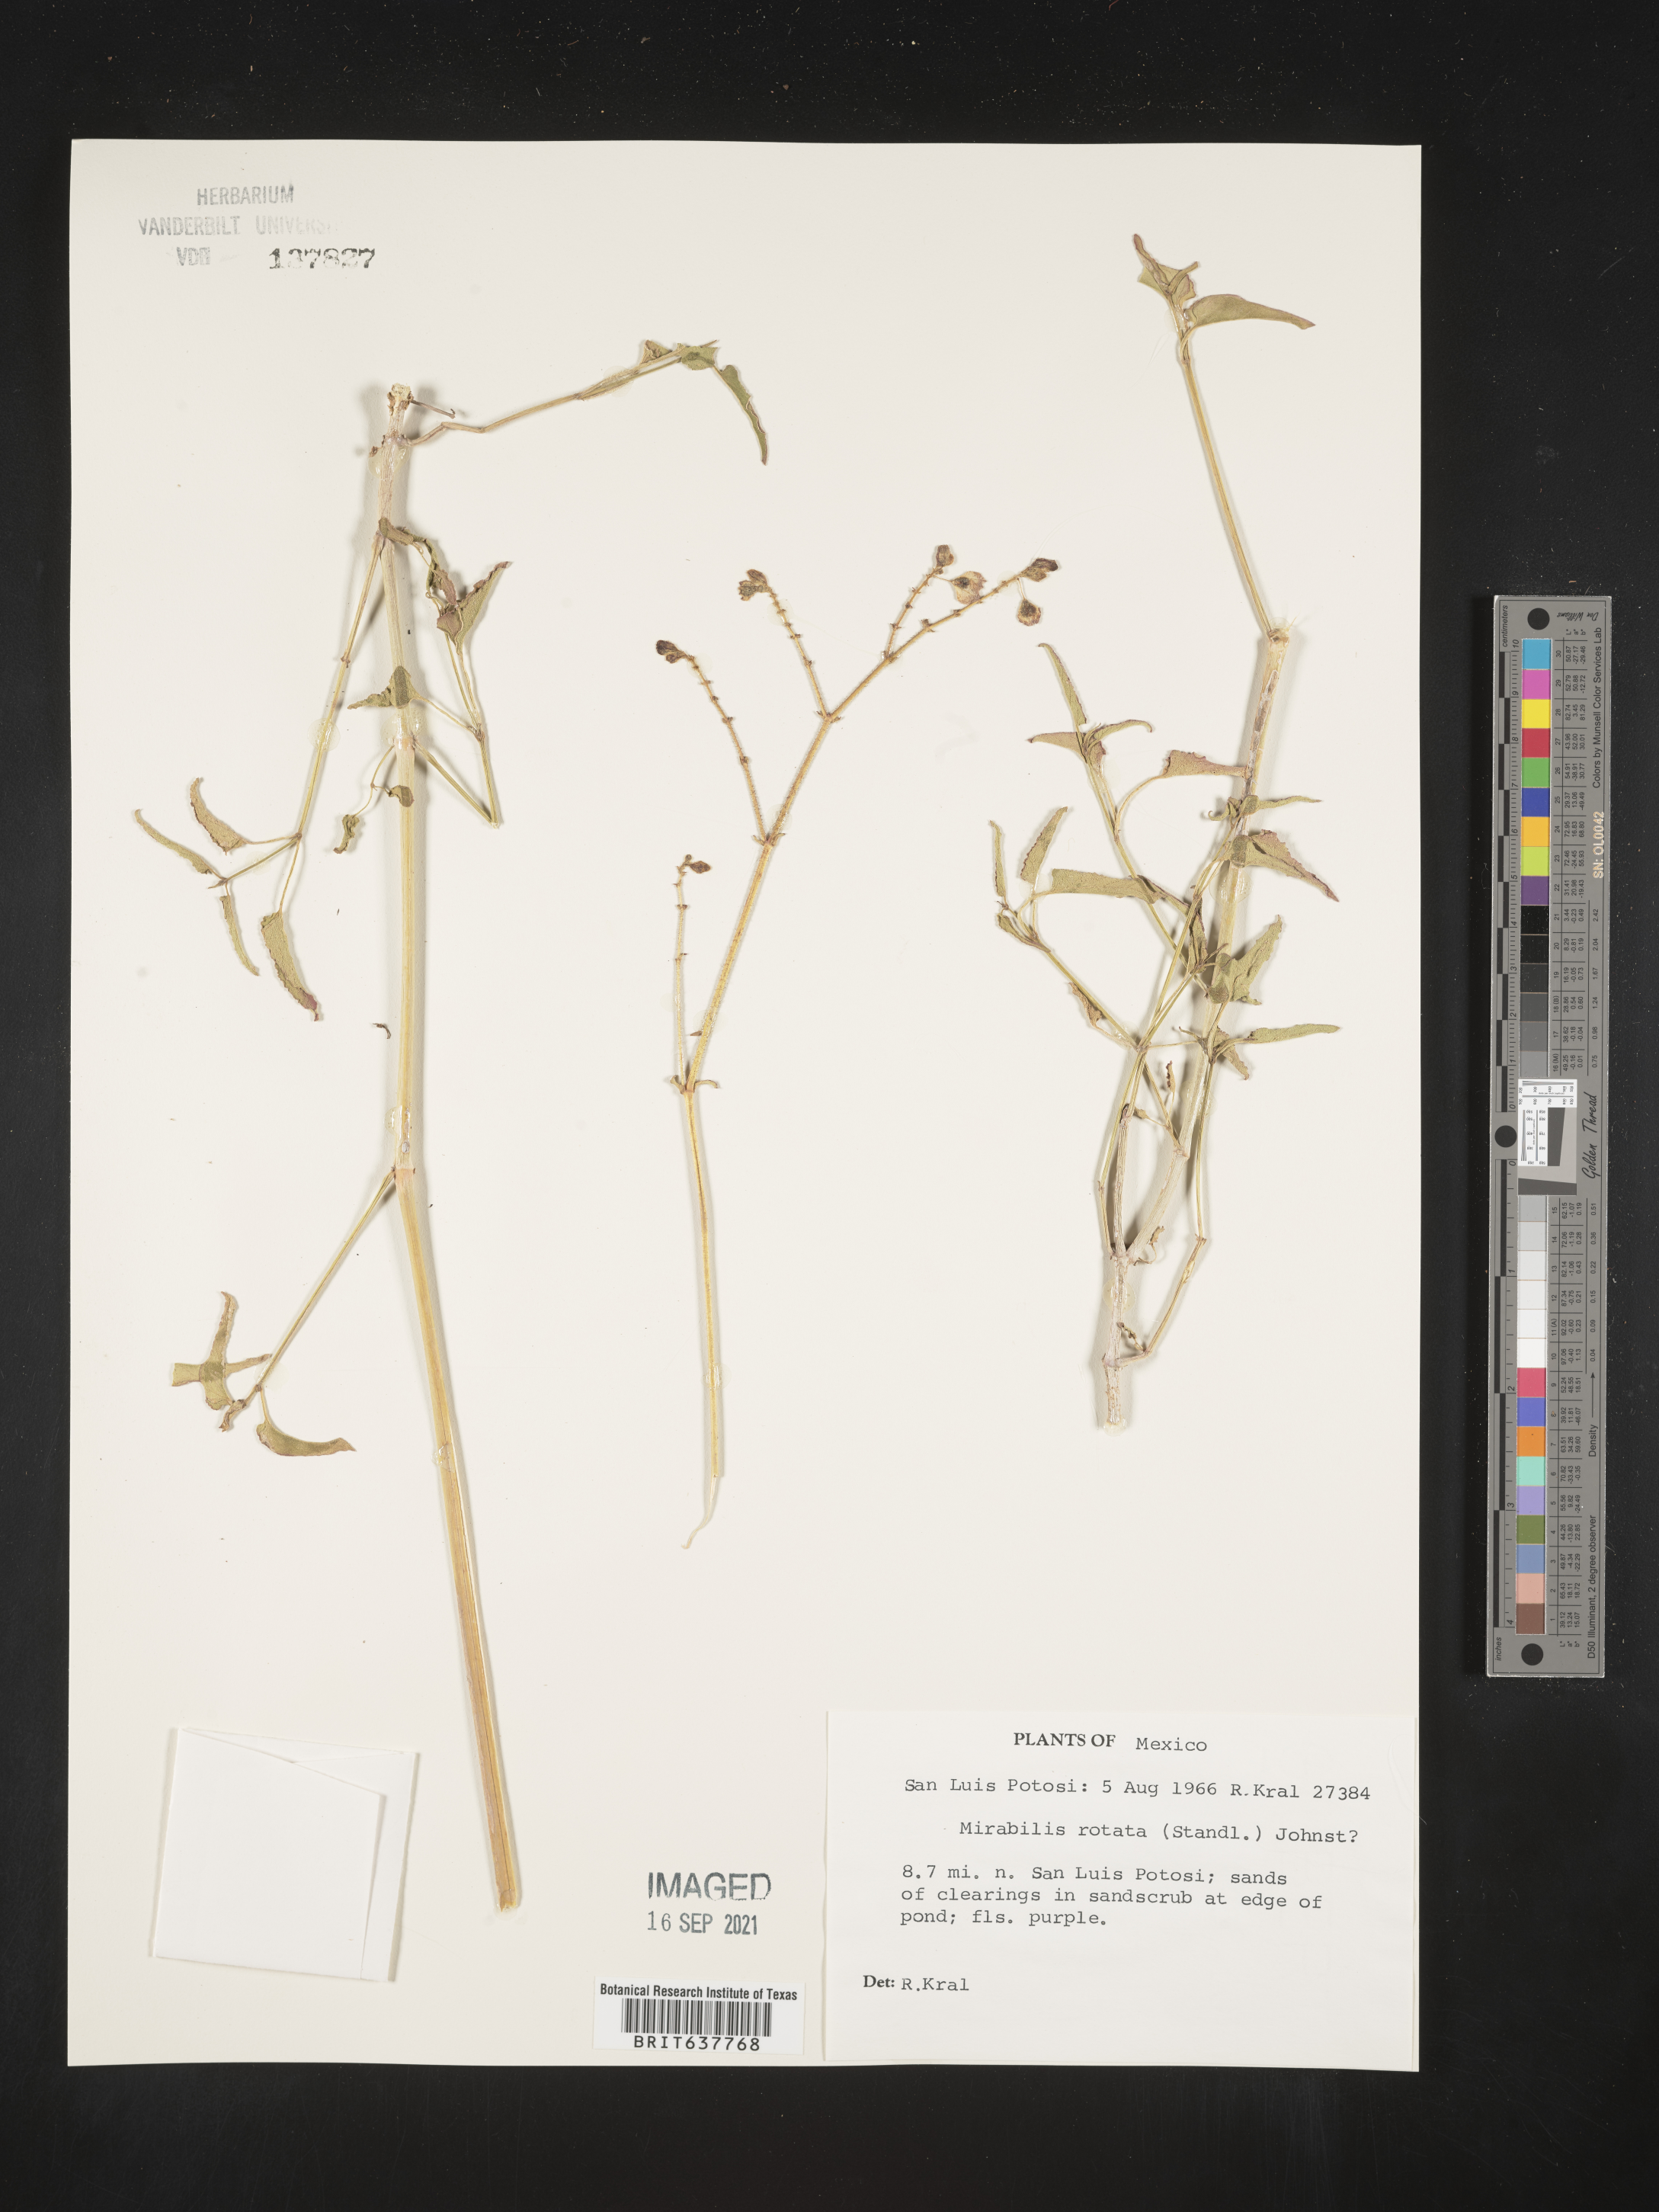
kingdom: Plantae
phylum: Tracheophyta
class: Magnoliopsida
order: Caryophyllales
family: Nyctaginaceae
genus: Mirabilis
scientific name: Mirabilis
